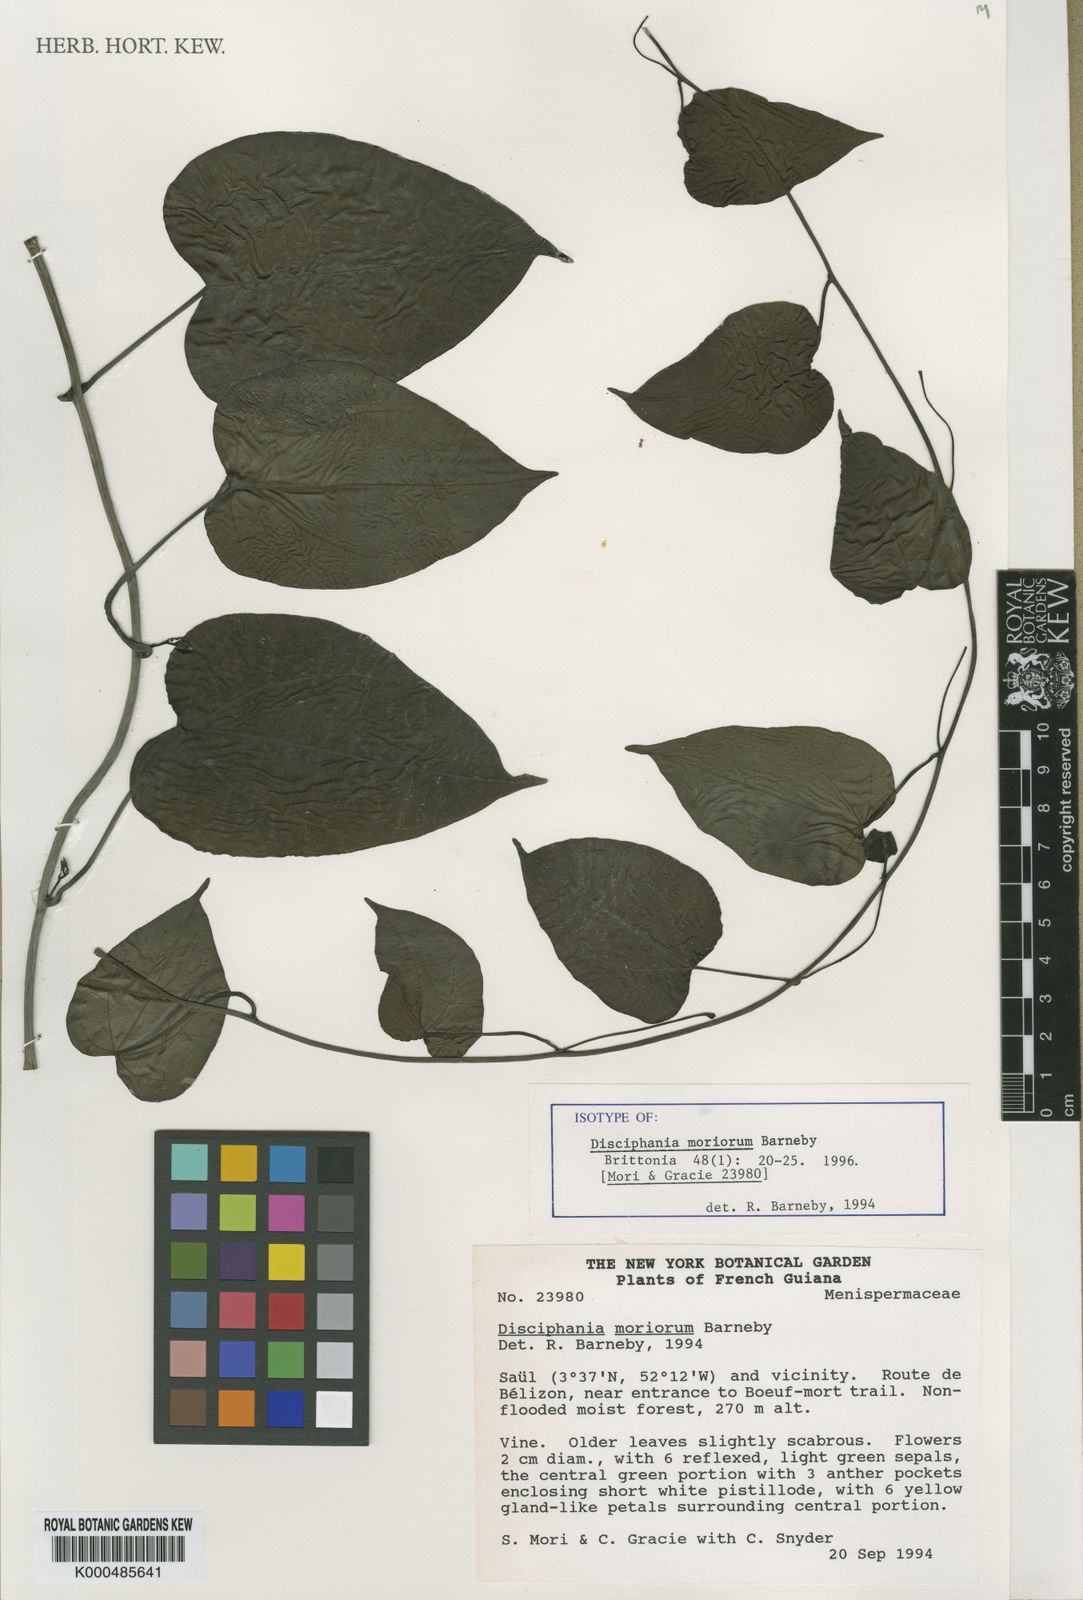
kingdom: Plantae
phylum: Tracheophyta
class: Magnoliopsida
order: Ranunculales
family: Menispermaceae
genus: Disciphania
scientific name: Disciphania moriorum
